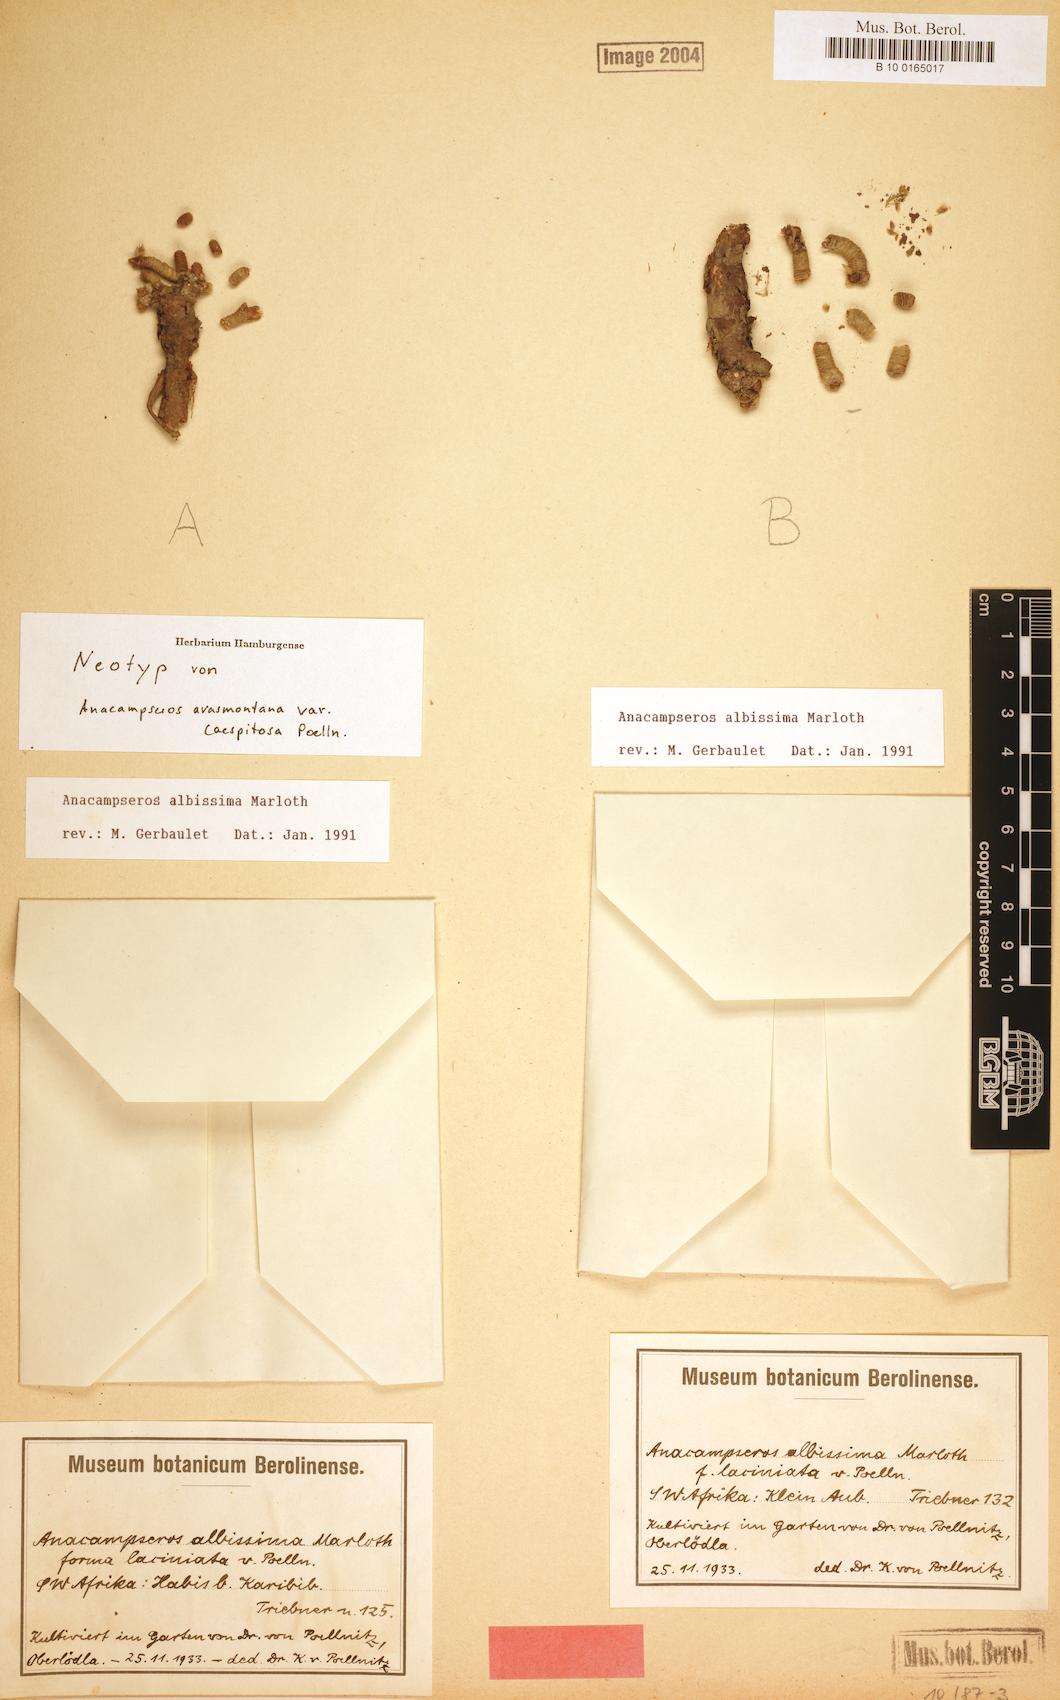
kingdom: Plantae
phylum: Tracheophyta
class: Magnoliopsida
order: Caryophyllales
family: Anacampserotaceae
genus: Avonia
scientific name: Avonia albissima
